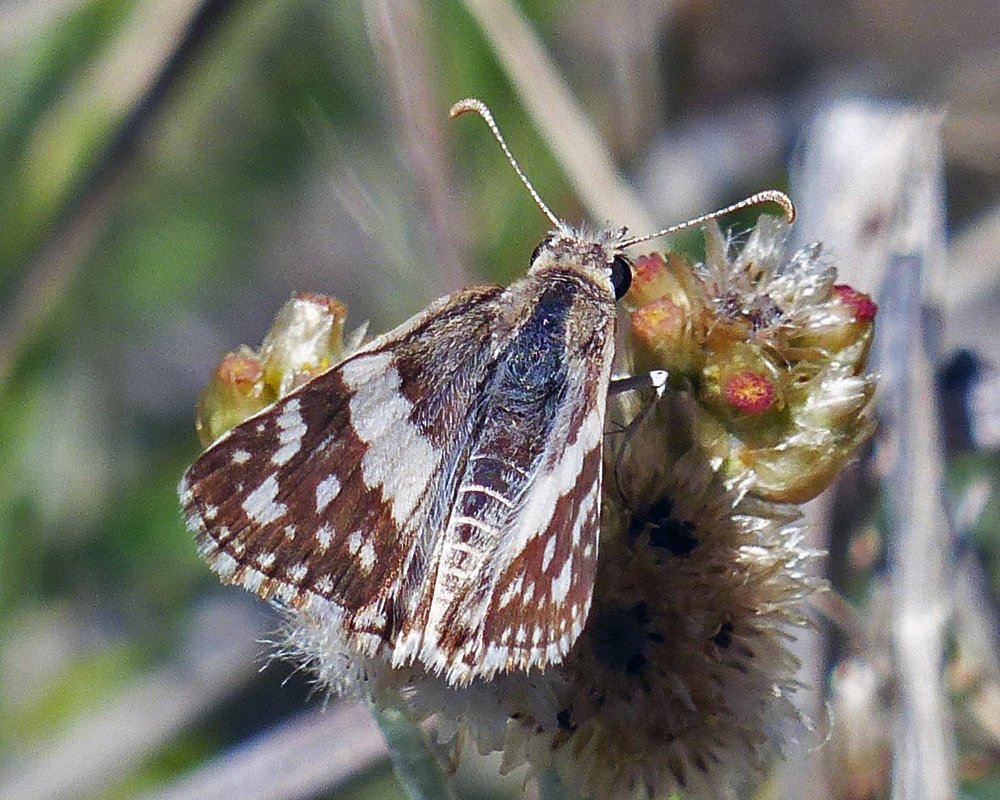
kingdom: Animalia
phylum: Arthropoda
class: Insecta
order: Lepidoptera
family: Hesperiidae
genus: Heliopyrgus
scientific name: Heliopyrgus domicella
